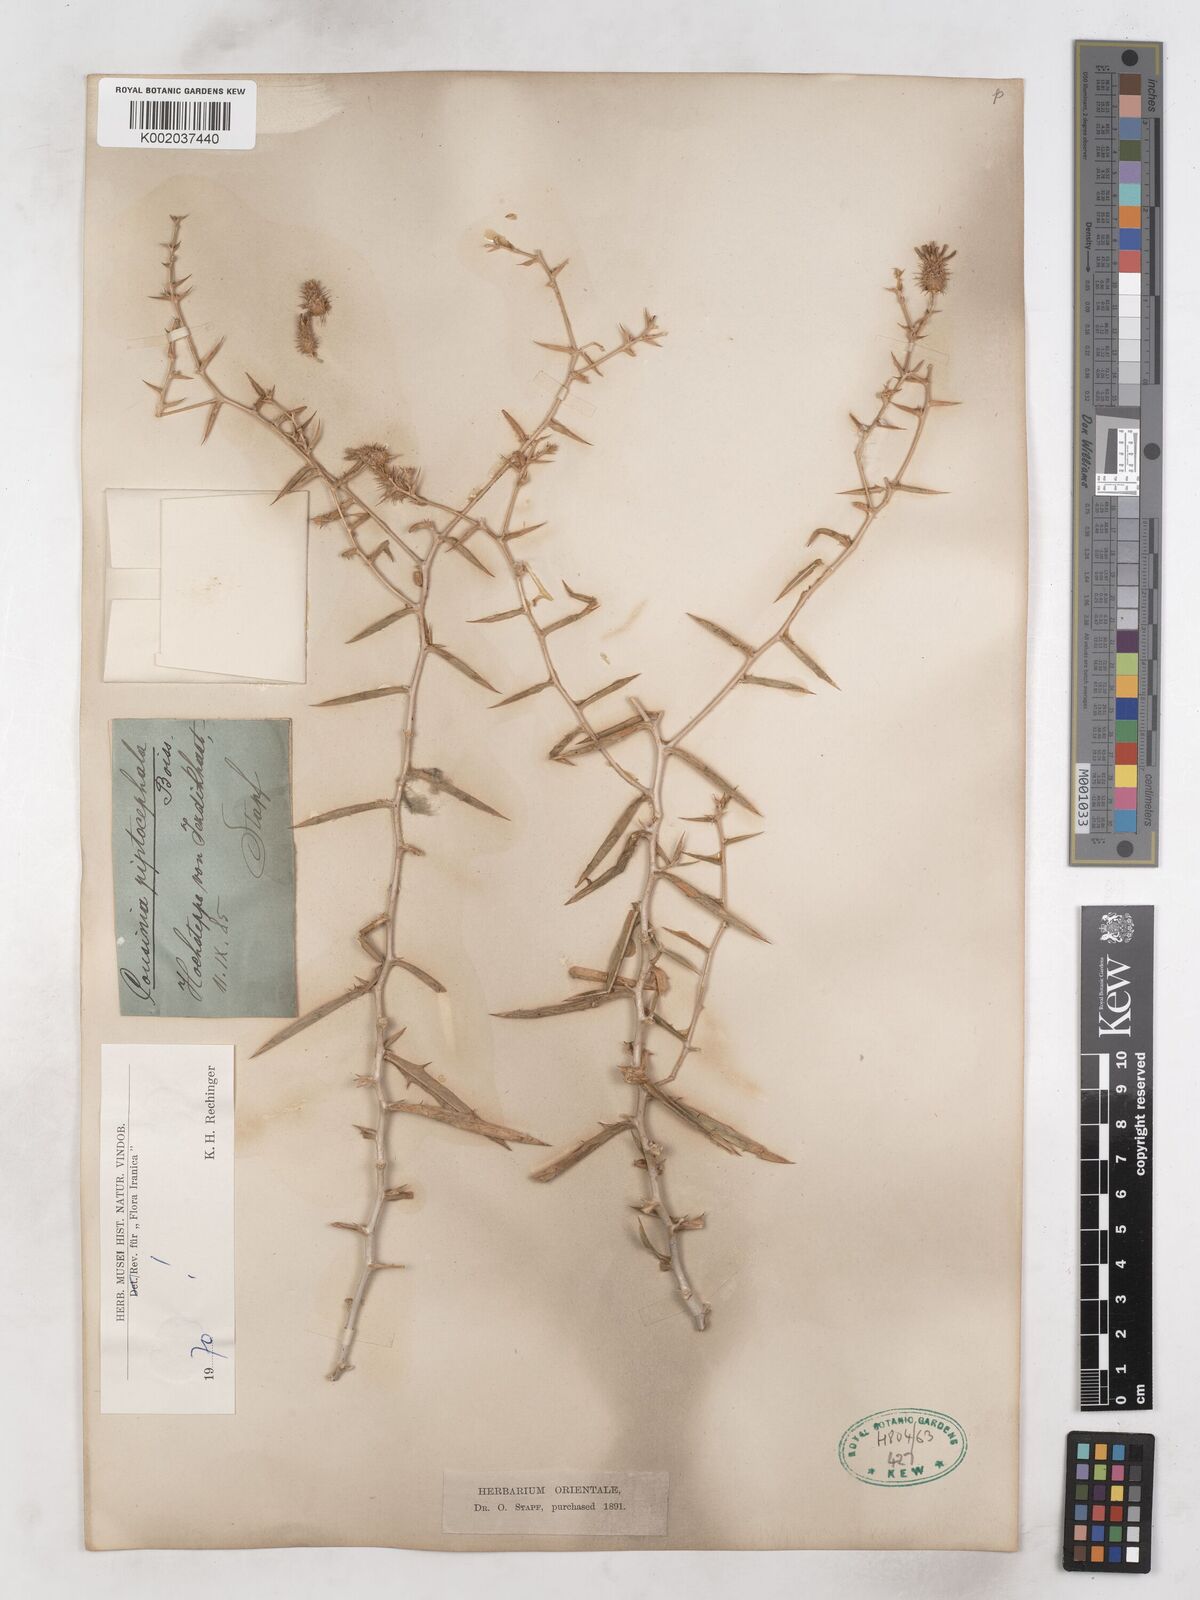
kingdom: Plantae
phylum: Tracheophyta
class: Magnoliopsida
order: Asterales
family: Asteraceae
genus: Cousinia
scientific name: Cousinia piptocephala
